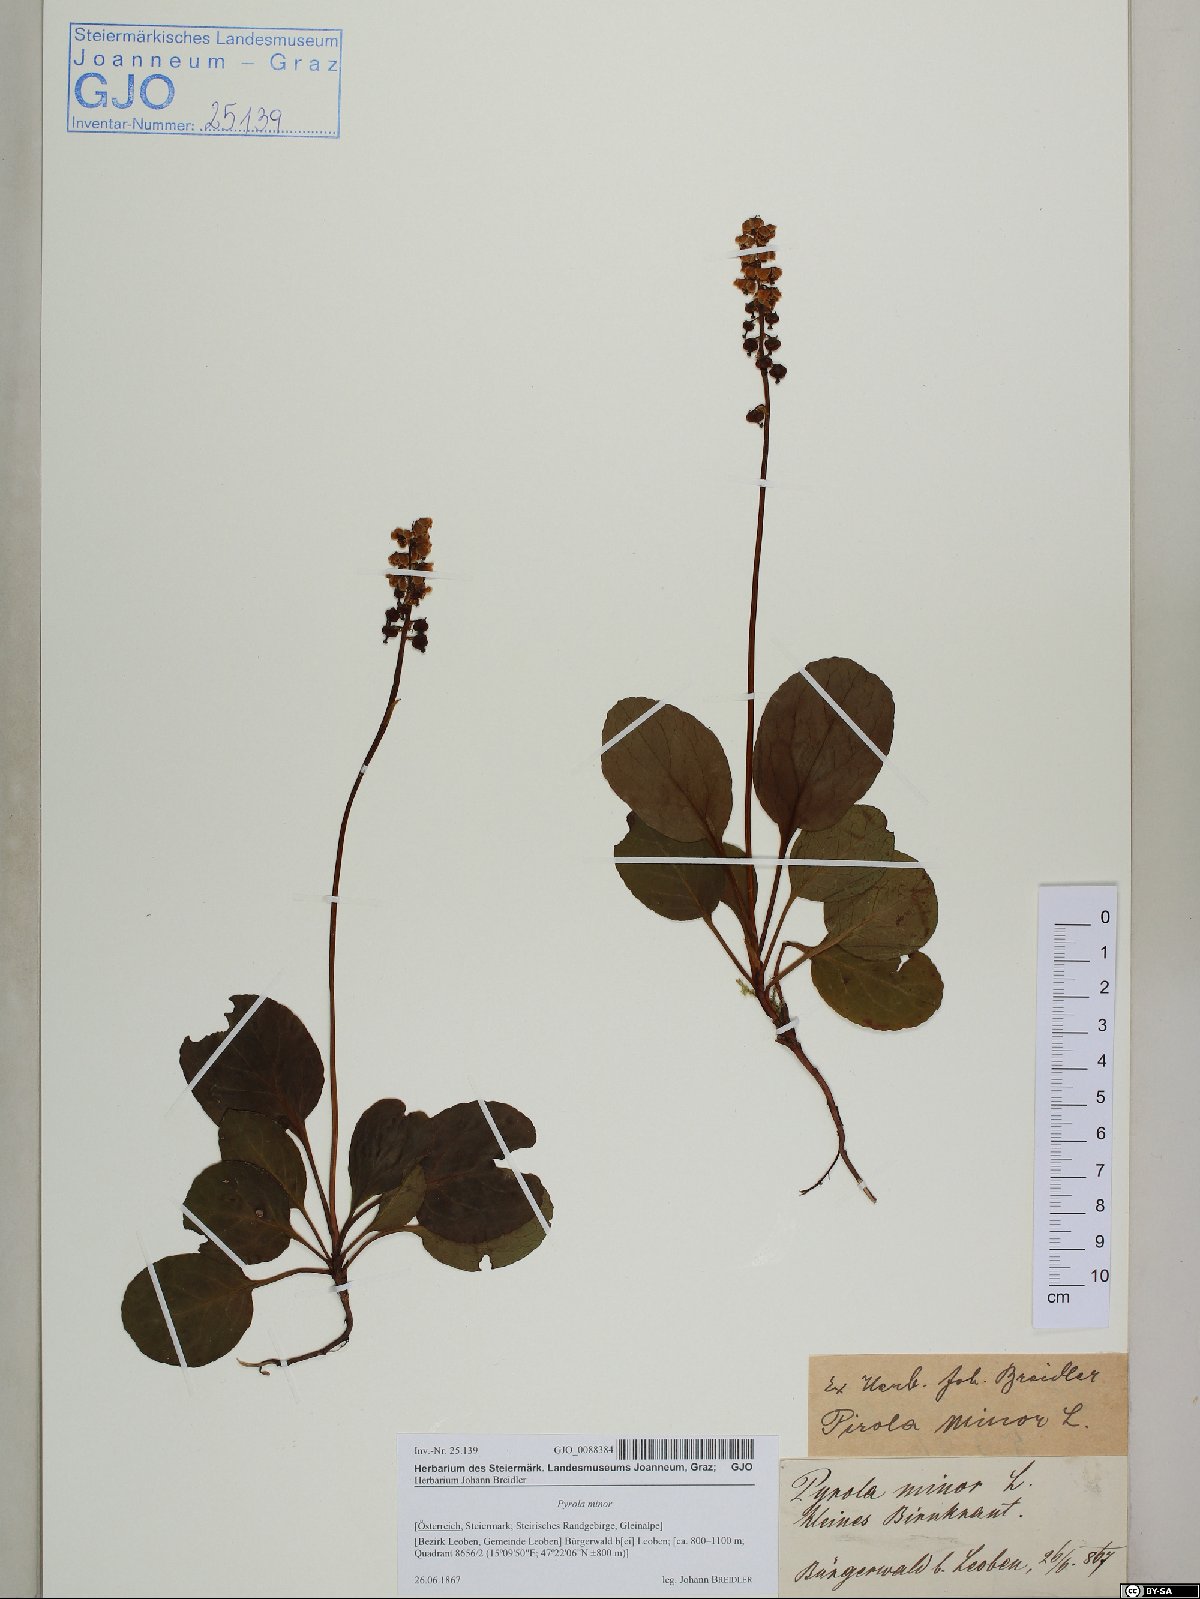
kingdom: Plantae
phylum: Tracheophyta
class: Magnoliopsida
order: Ericales
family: Ericaceae
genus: Pyrola
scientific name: Pyrola minor
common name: Common wintergreen
